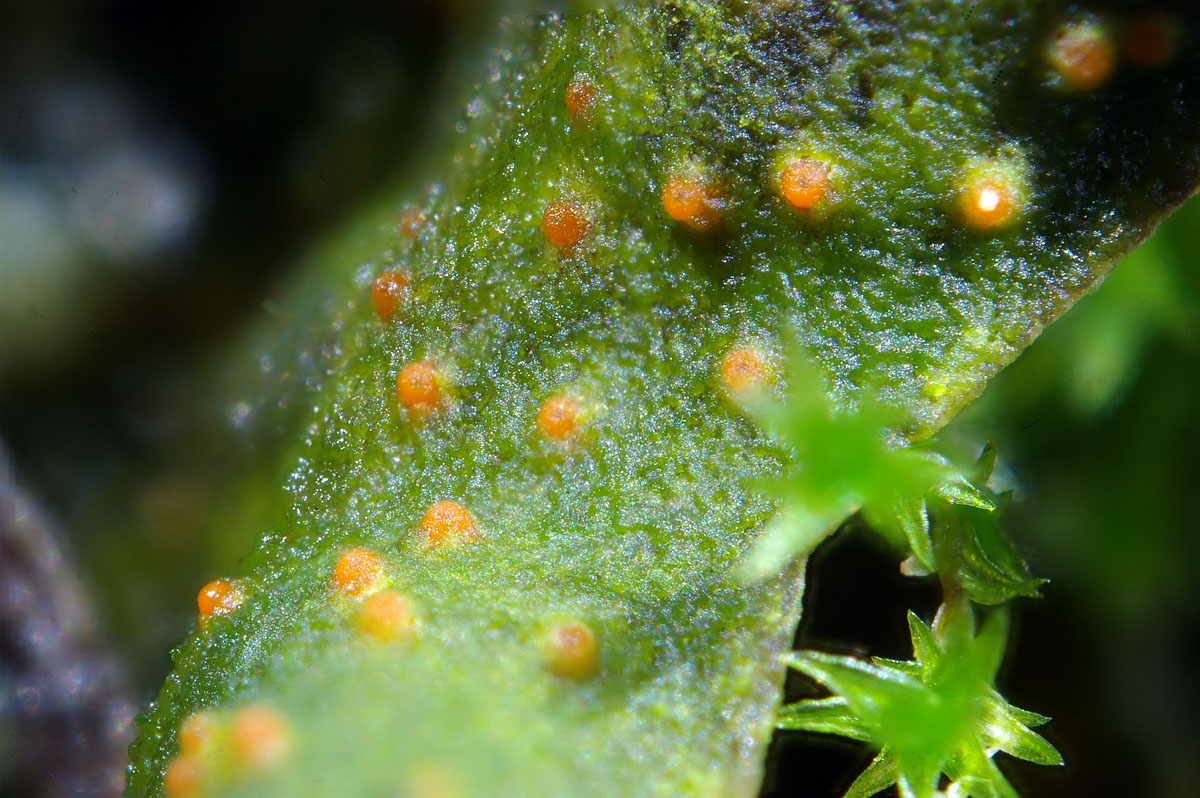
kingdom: Fungi
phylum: Ascomycota
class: Sordariomycetes
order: Hypocreales
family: Bionectriaceae
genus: Pronectria
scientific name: Pronectria robergei
